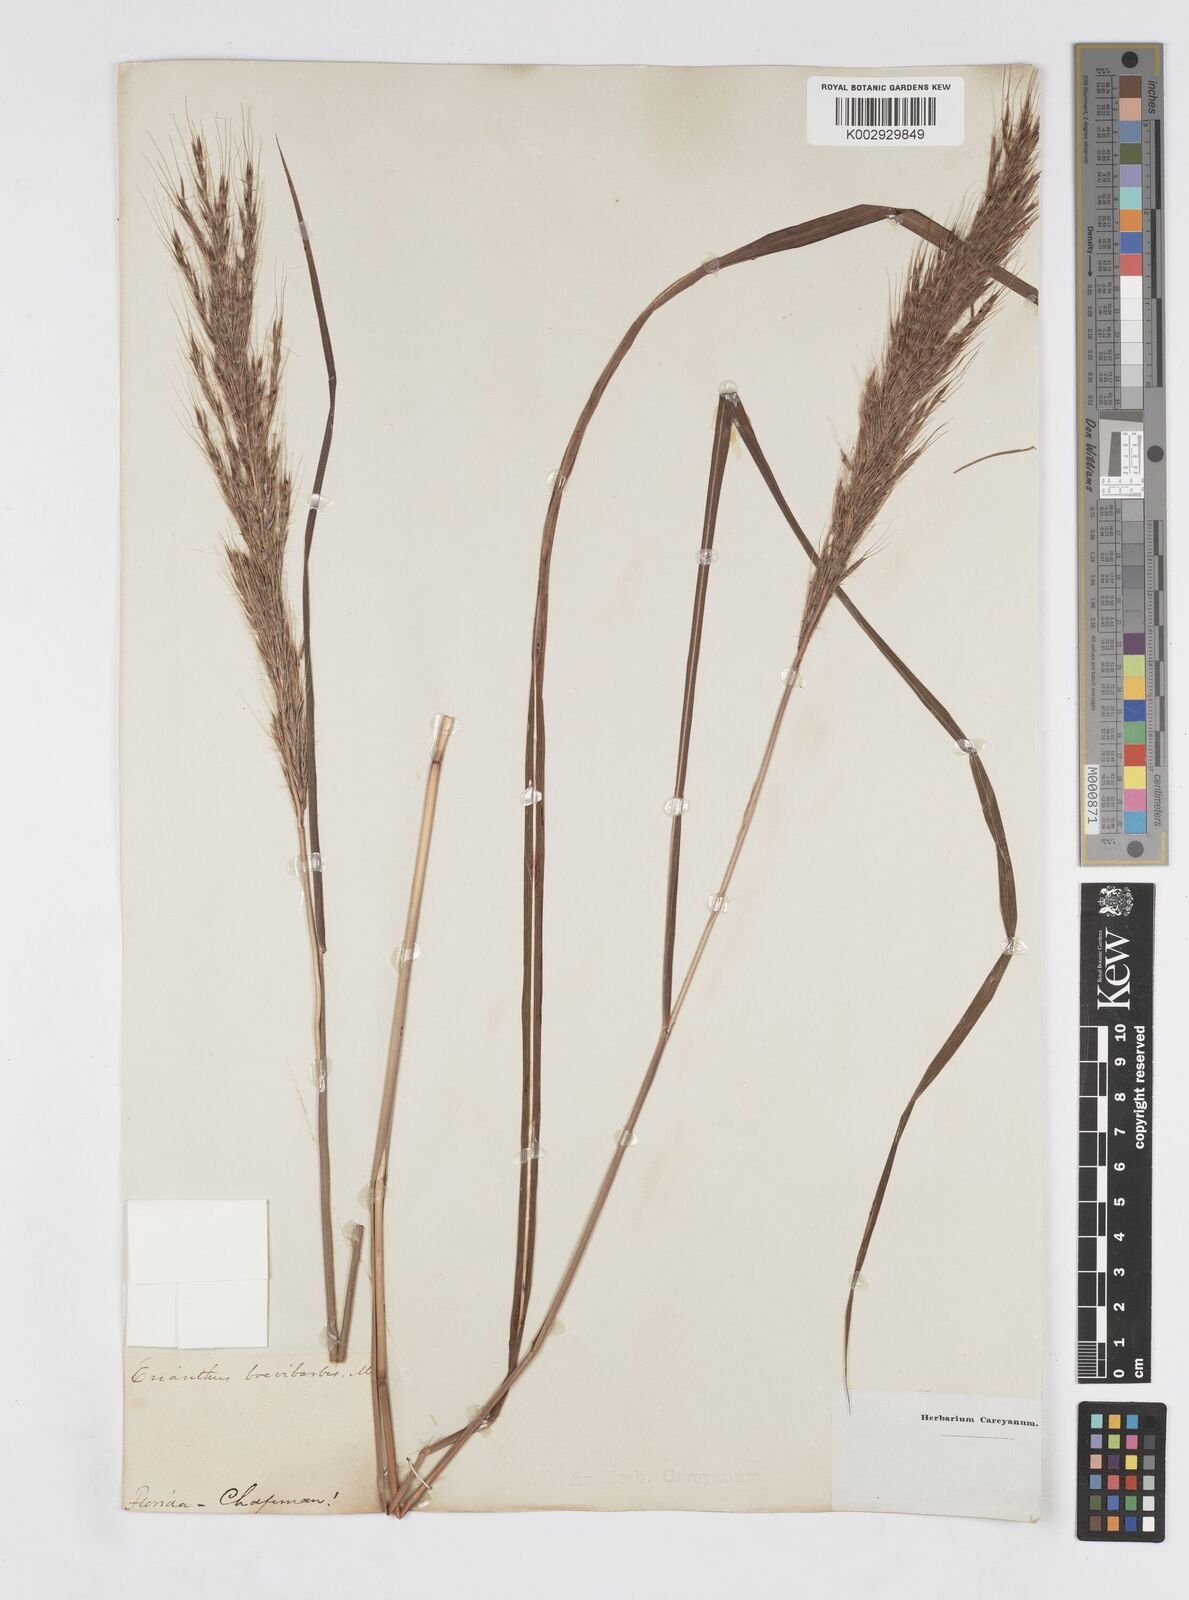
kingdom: Plantae
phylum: Tracheophyta
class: Liliopsida
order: Poales
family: Poaceae
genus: Saccharum
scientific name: Saccharum
